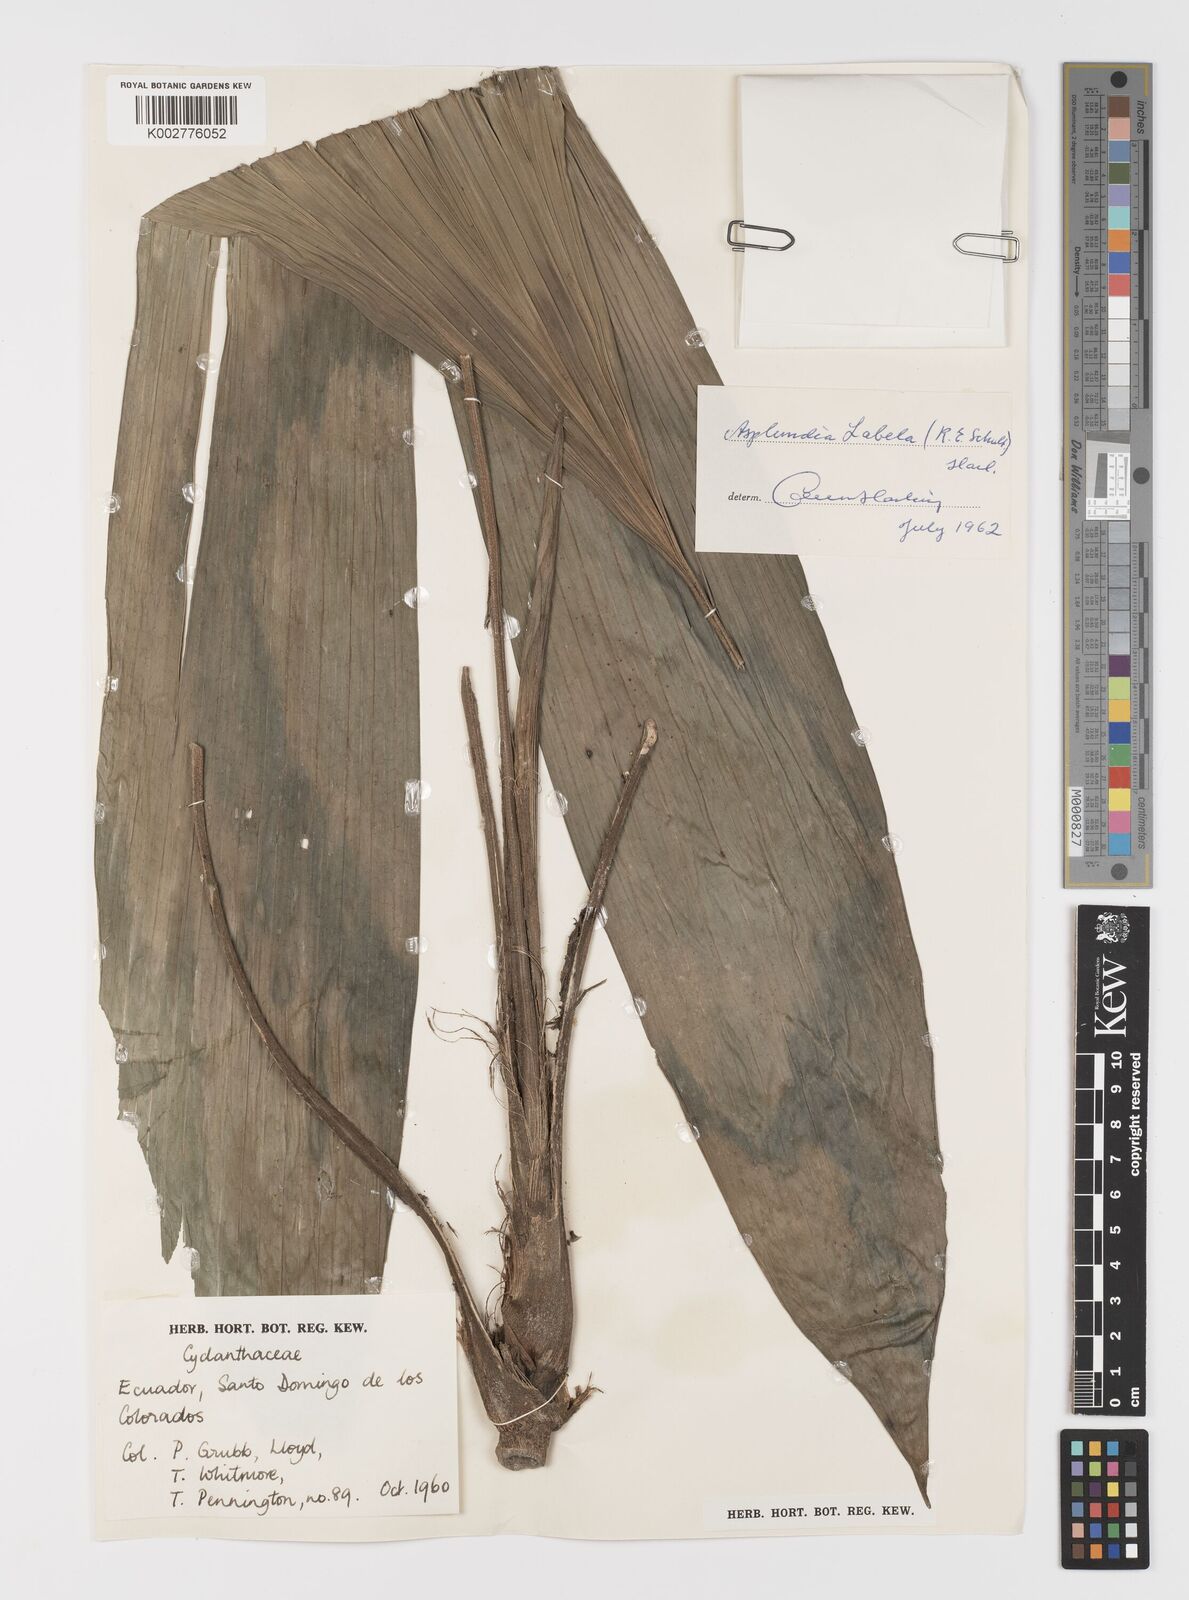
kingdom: Plantae
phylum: Tracheophyta
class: Liliopsida
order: Pandanales
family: Cyclanthaceae
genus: Asplundia
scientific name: Asplundia labela
